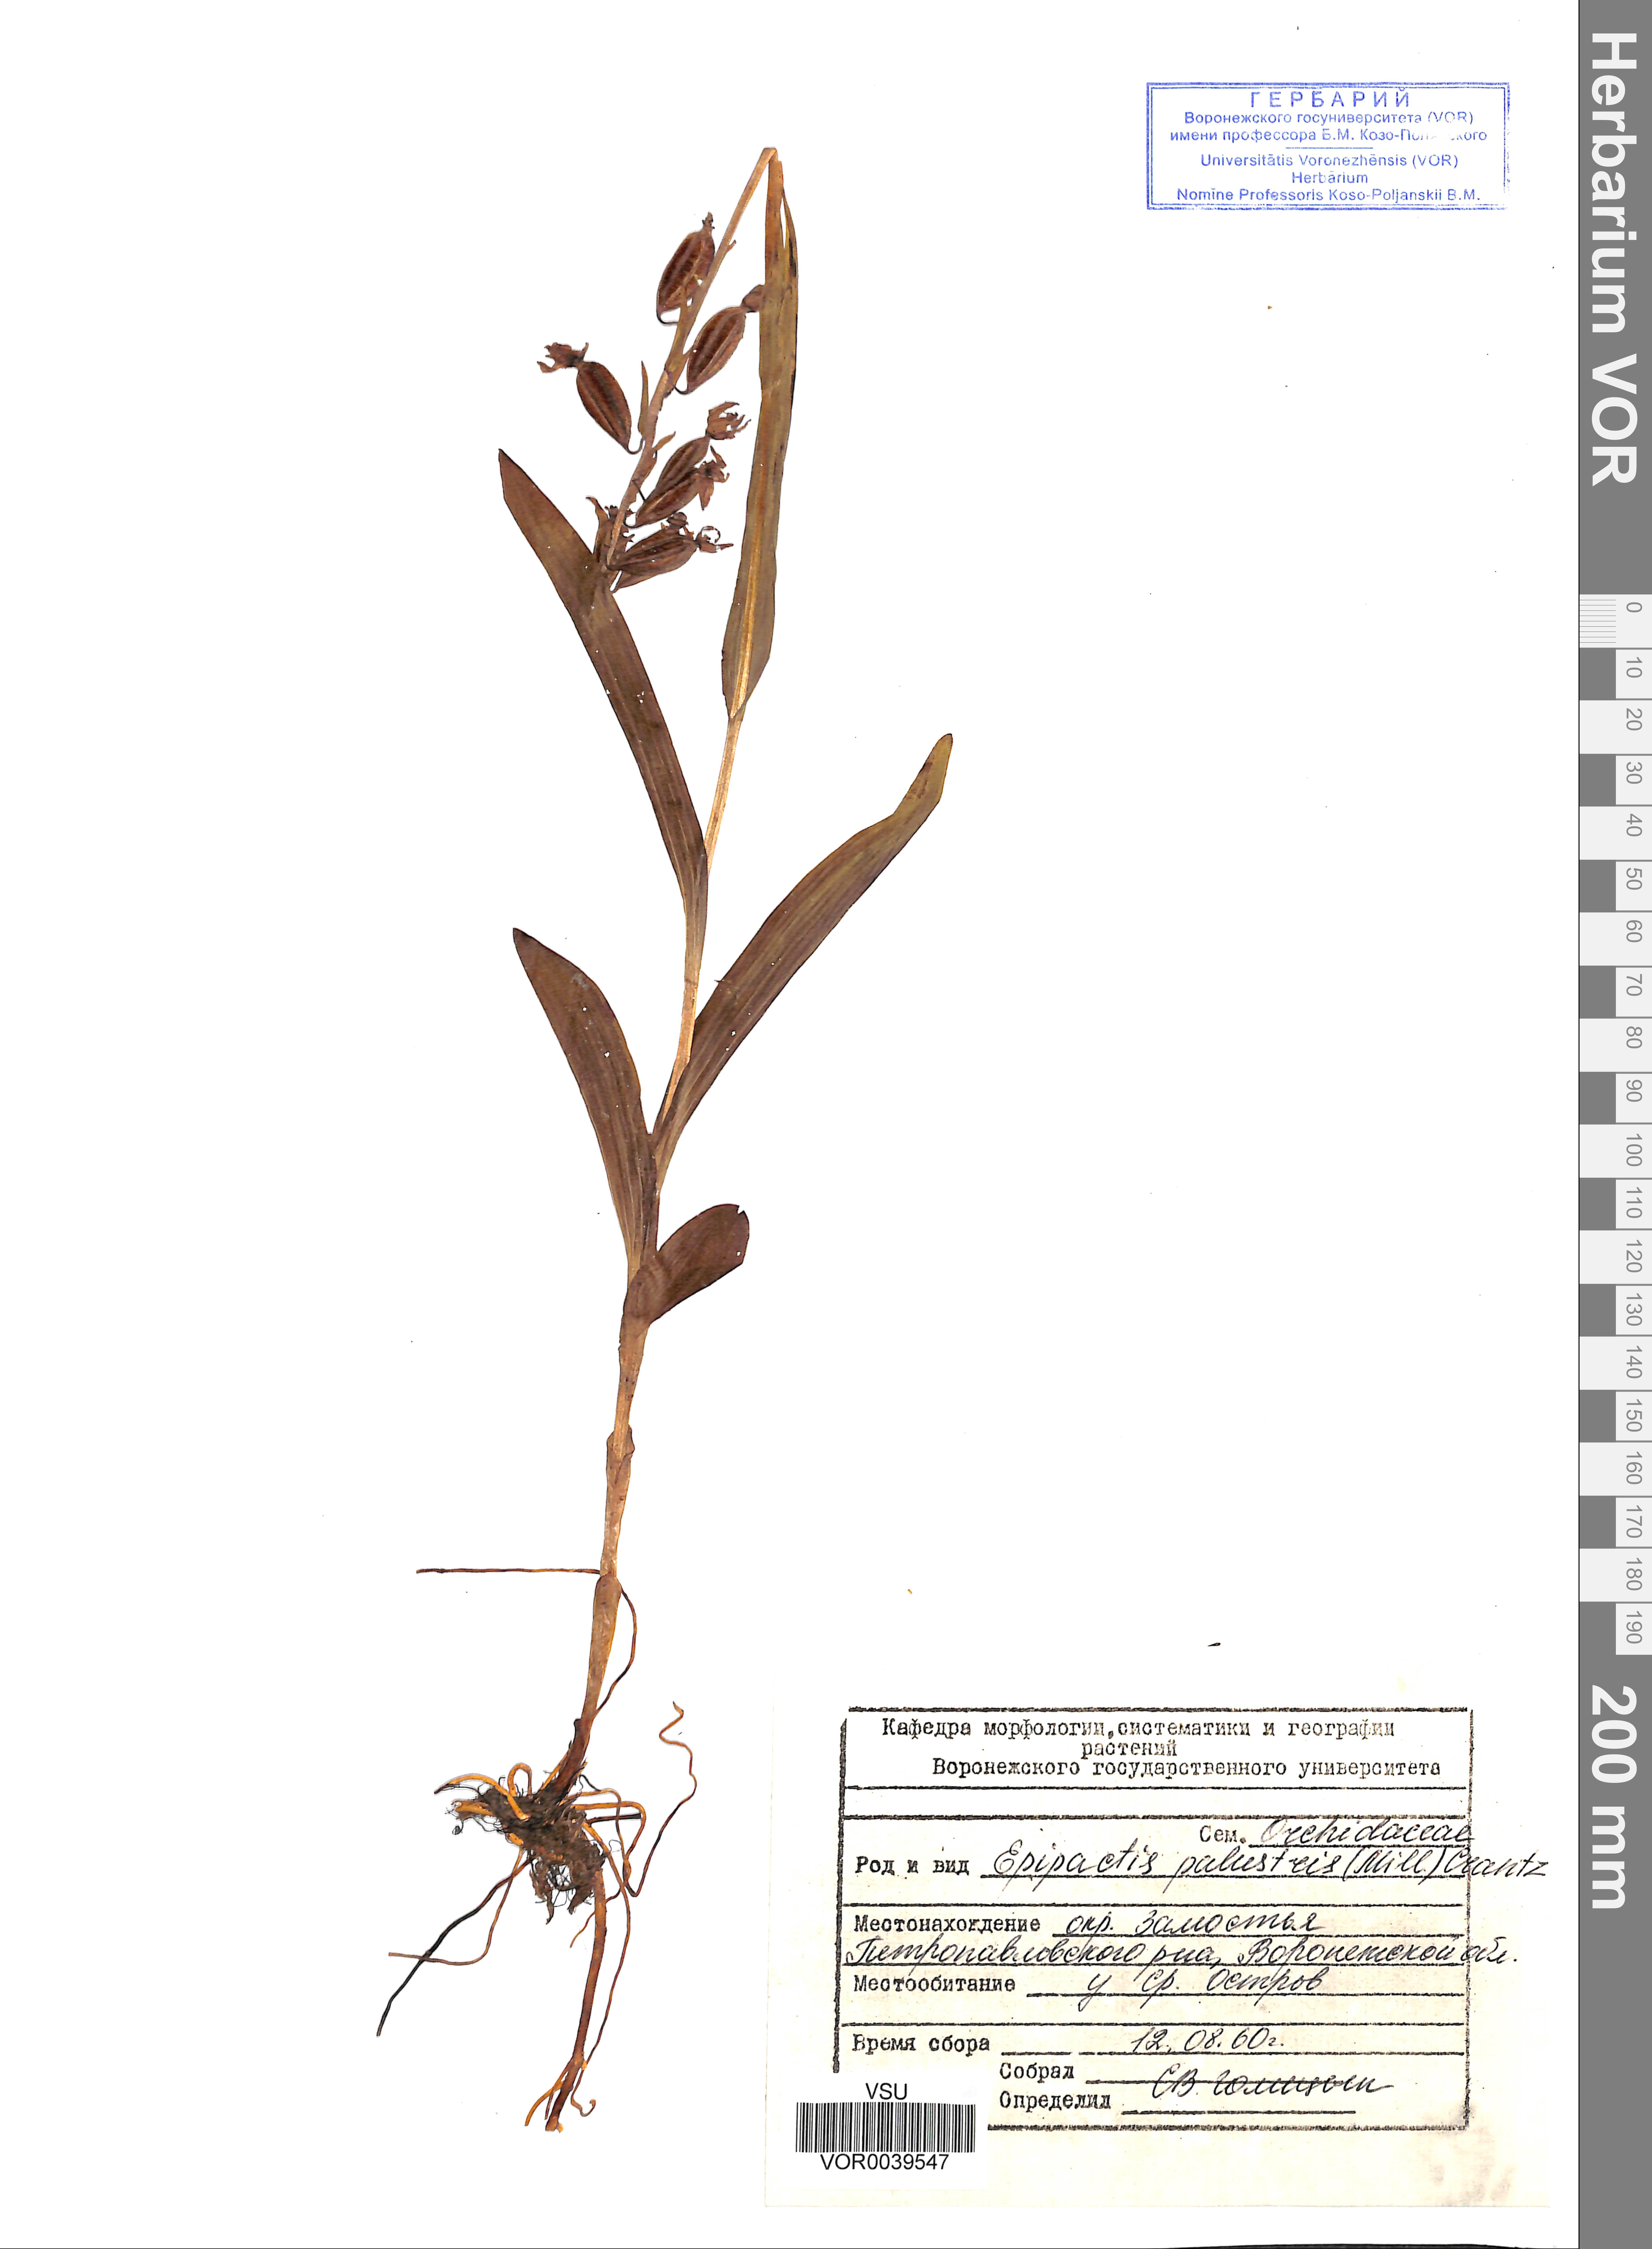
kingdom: Plantae
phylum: Tracheophyta
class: Liliopsida
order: Asparagales
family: Orchidaceae
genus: Epipactis
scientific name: Epipactis palustris
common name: Marsh helleborine
